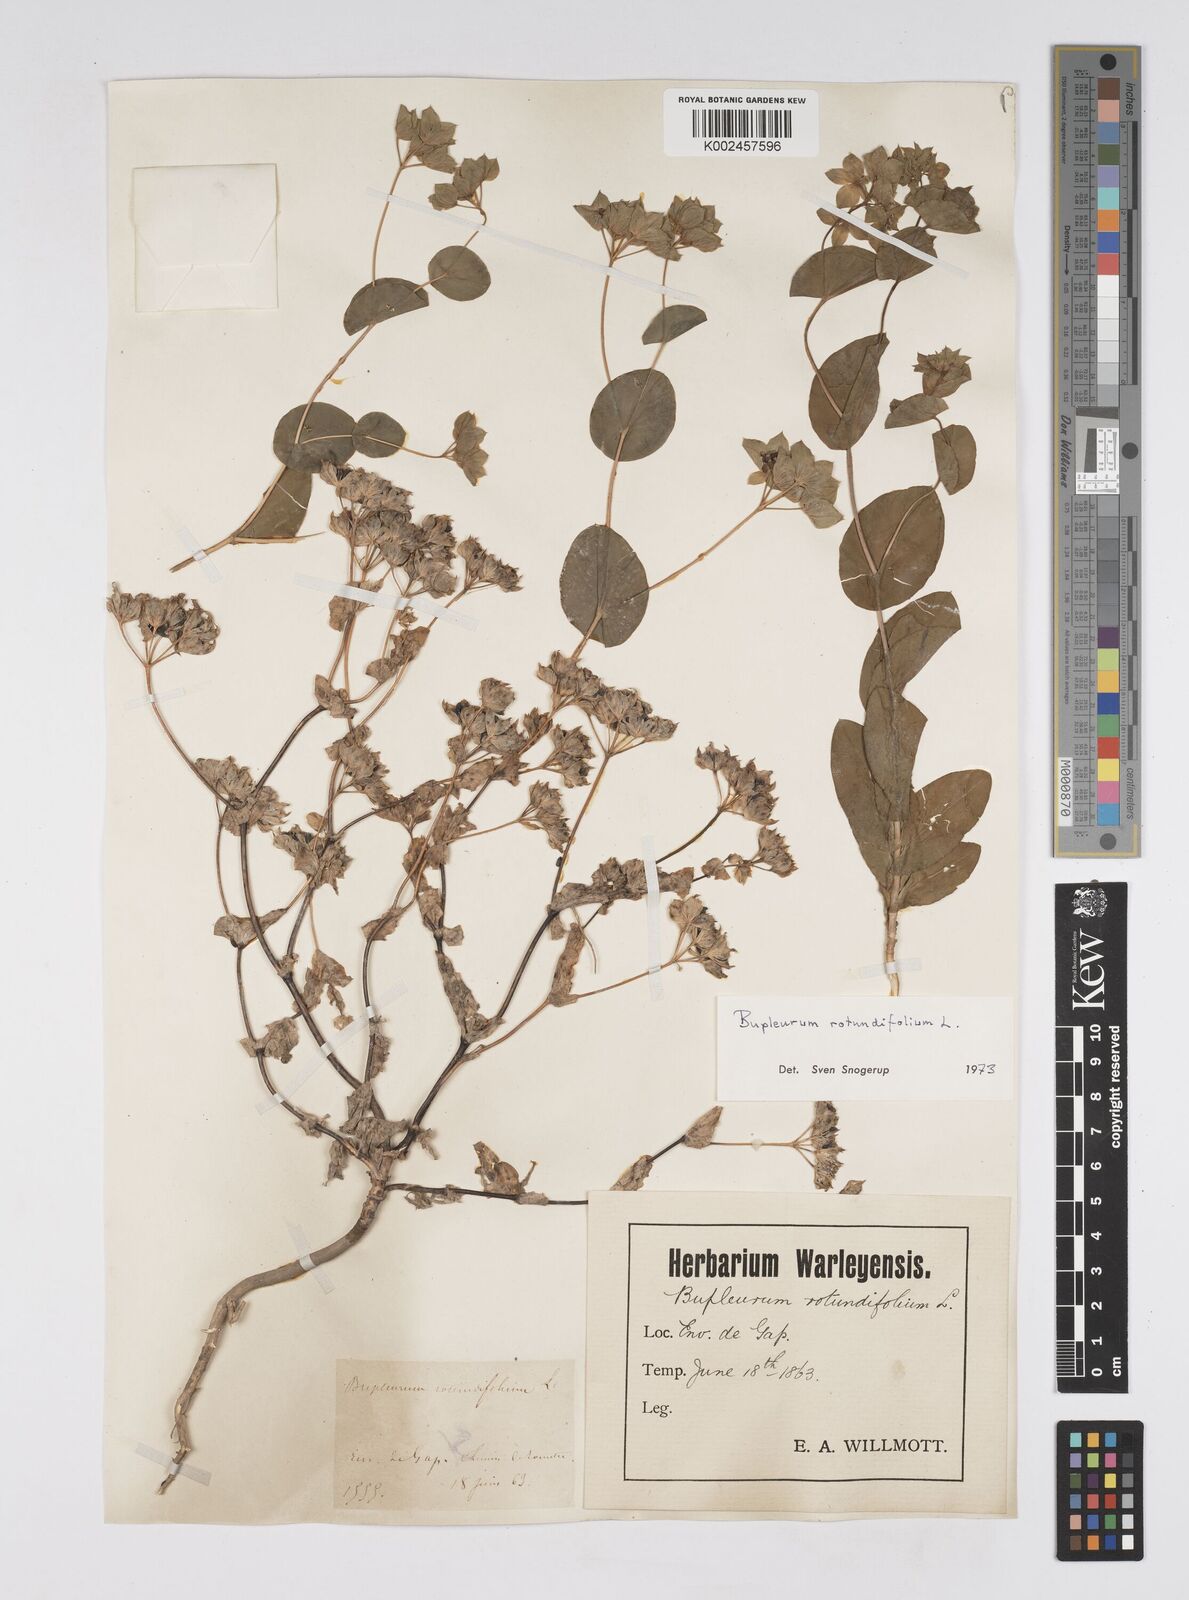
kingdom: Plantae
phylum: Tracheophyta
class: Magnoliopsida
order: Apiales
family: Apiaceae
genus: Bupleurum
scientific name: Bupleurum rotundifolium
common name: Thorow-wax
